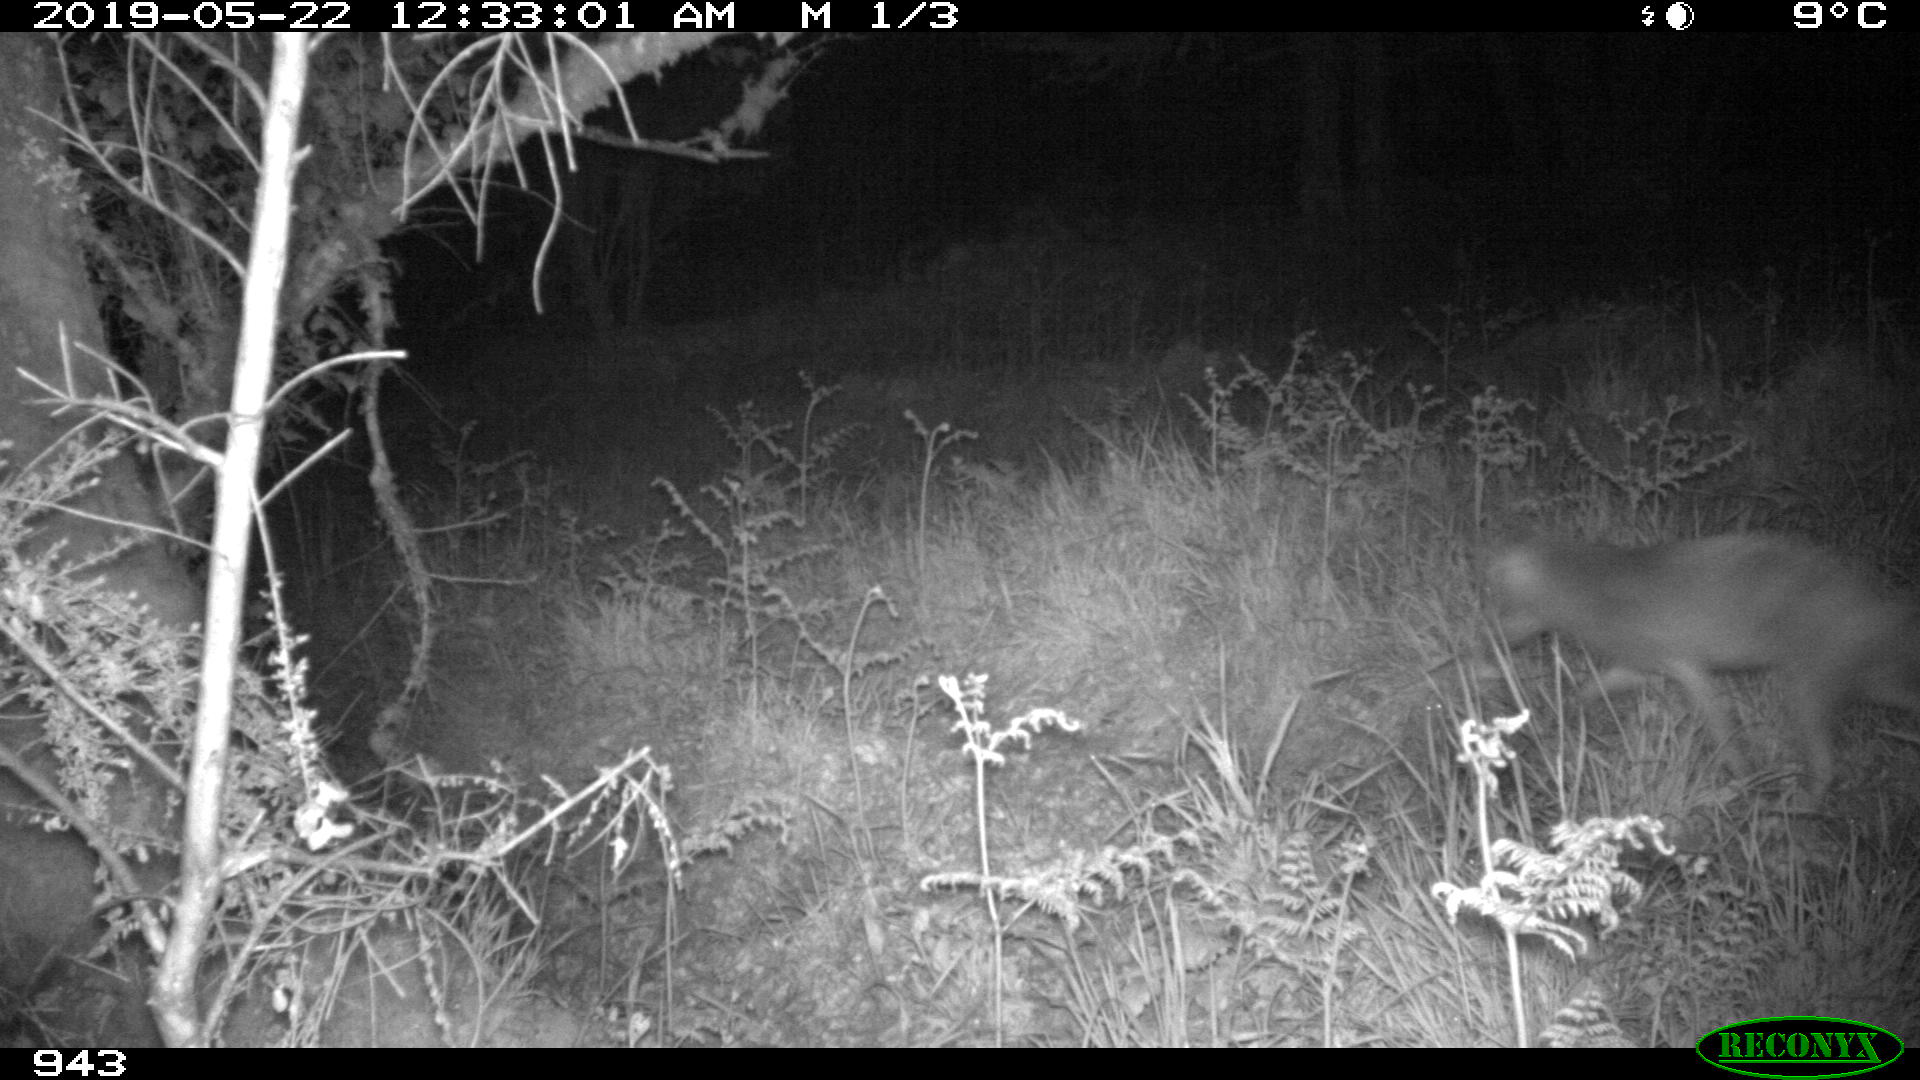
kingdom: Animalia
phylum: Chordata
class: Mammalia
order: Carnivora
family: Canidae
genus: Vulpes
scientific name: Vulpes vulpes
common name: Red fox
